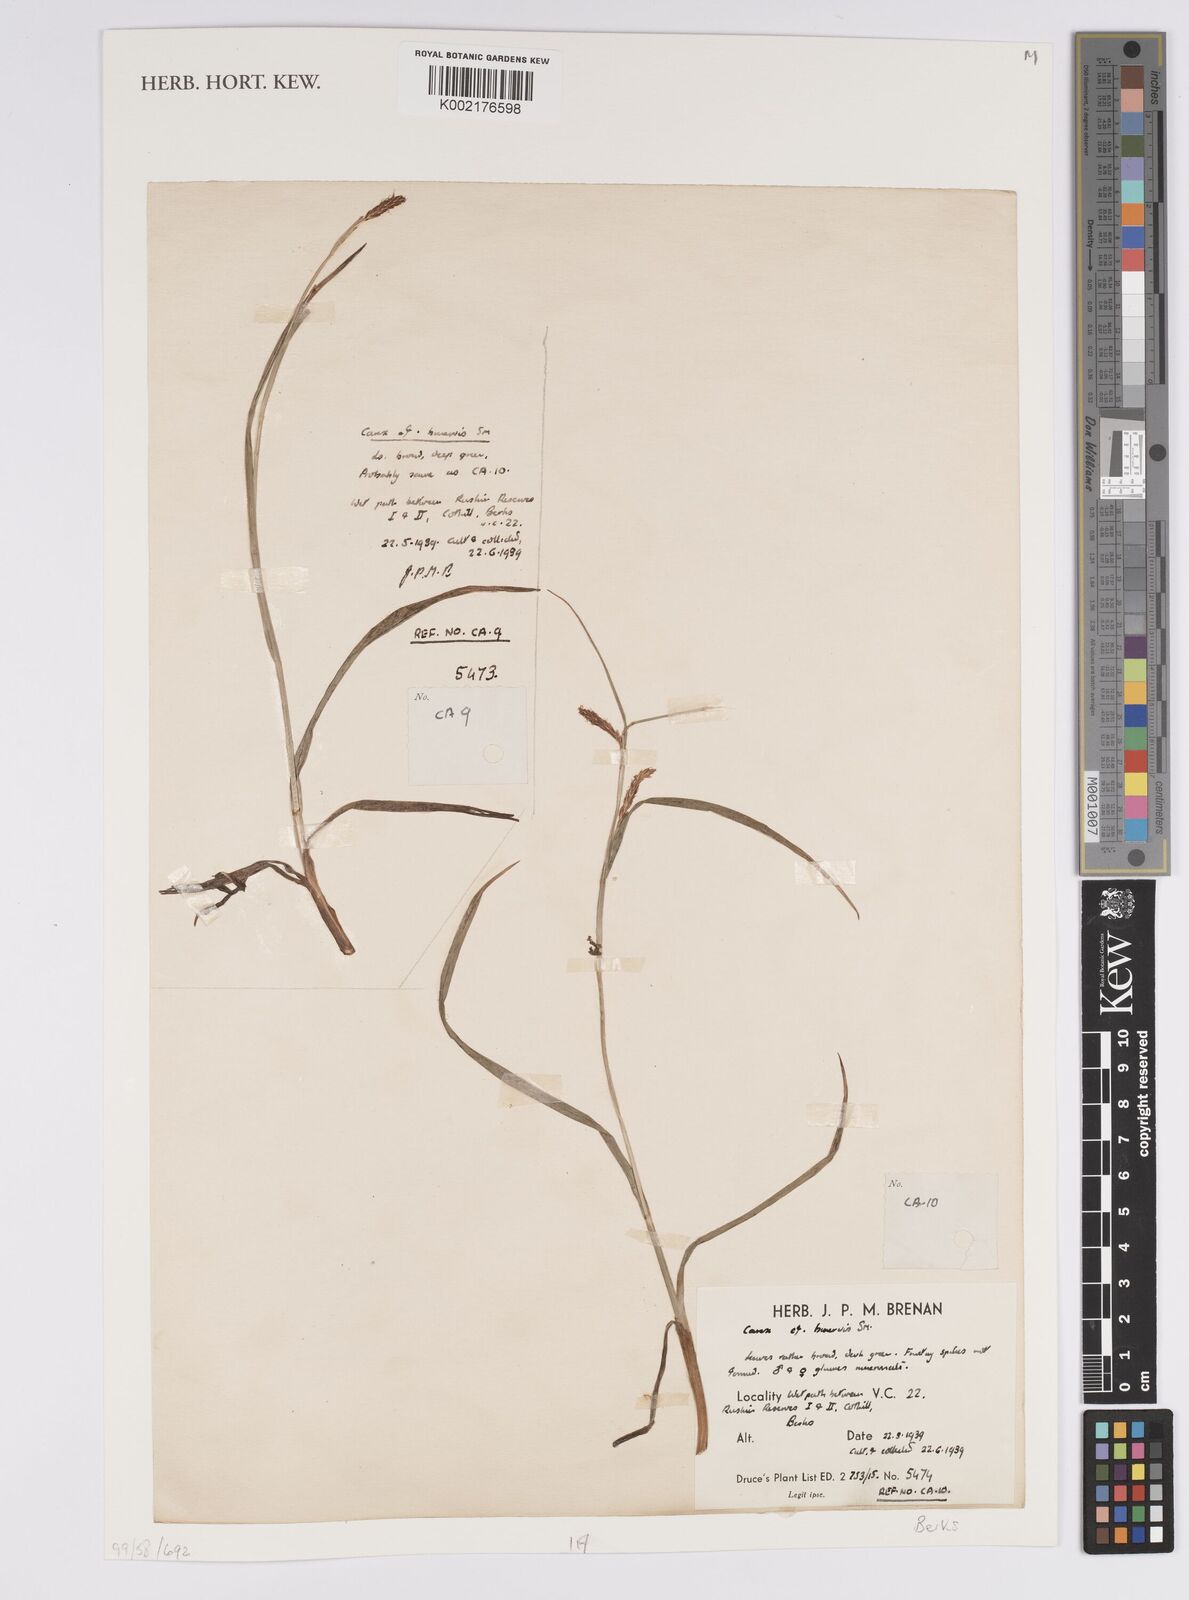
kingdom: Plantae
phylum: Tracheophyta
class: Liliopsida
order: Poales
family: Cyperaceae
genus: Carex
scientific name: Carex binervis
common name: Green-ribbed sedge
